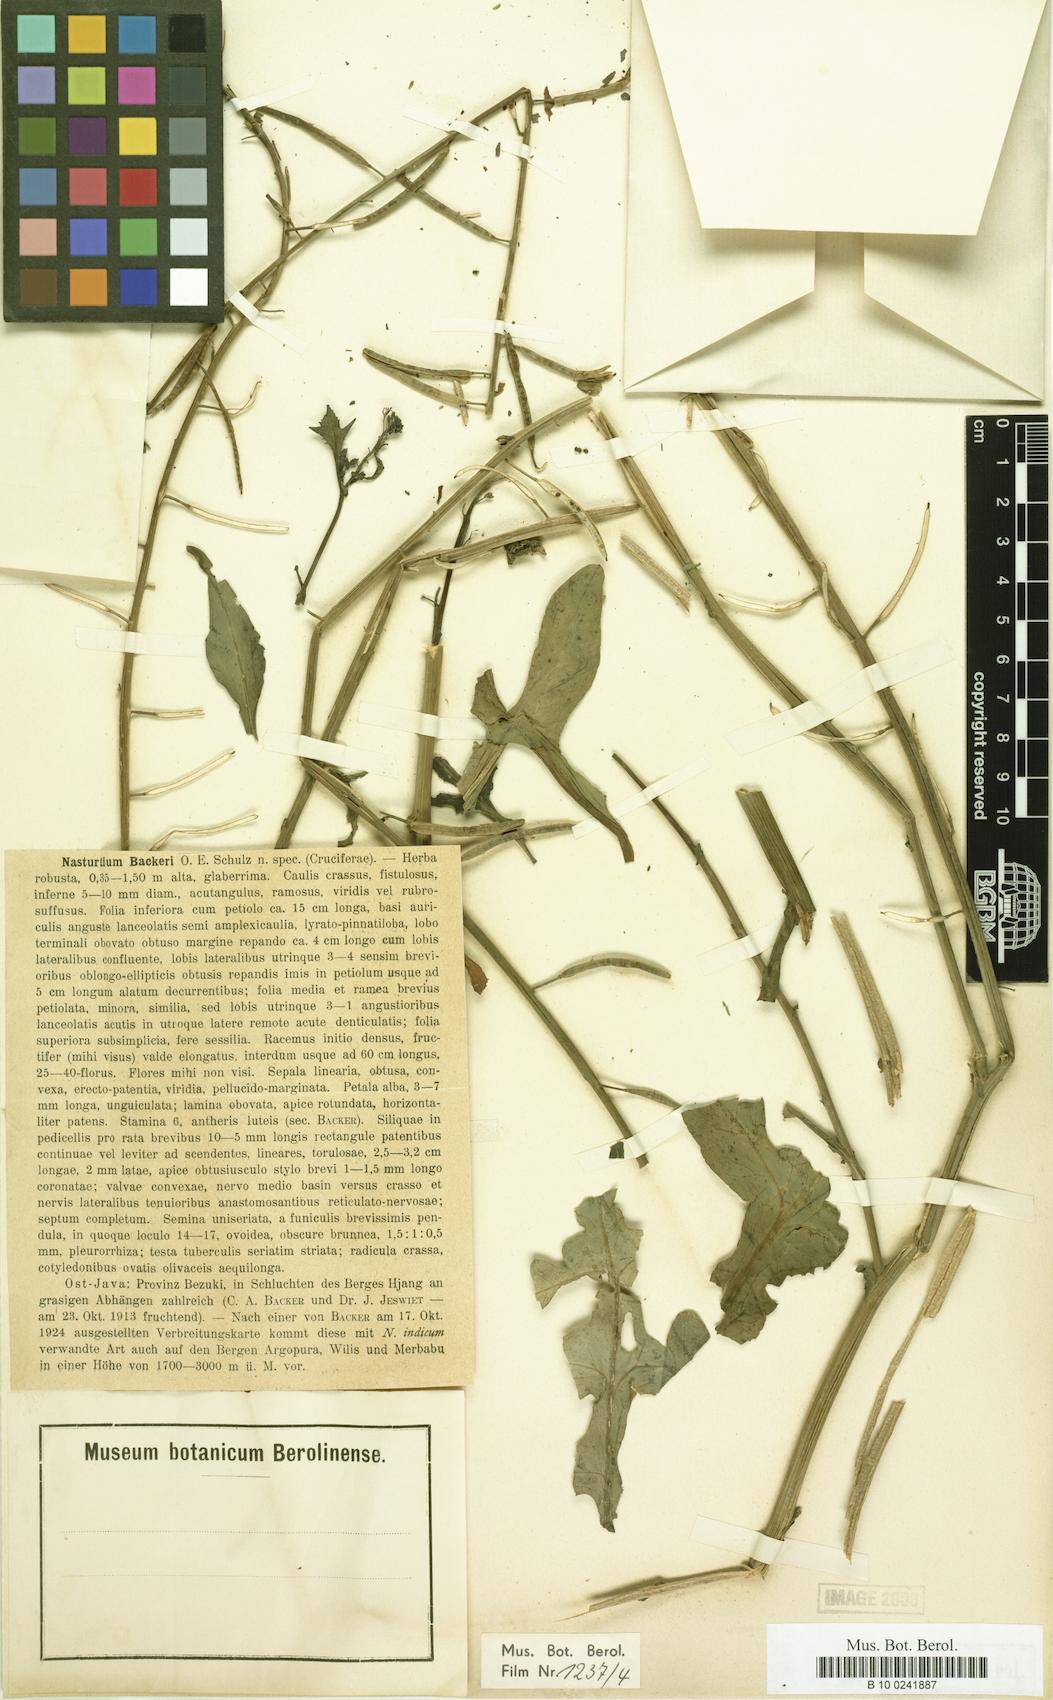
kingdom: Plantae
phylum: Tracheophyta
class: Magnoliopsida
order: Brassicales
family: Brassicaceae
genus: Rorippa
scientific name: Rorippa backeri
